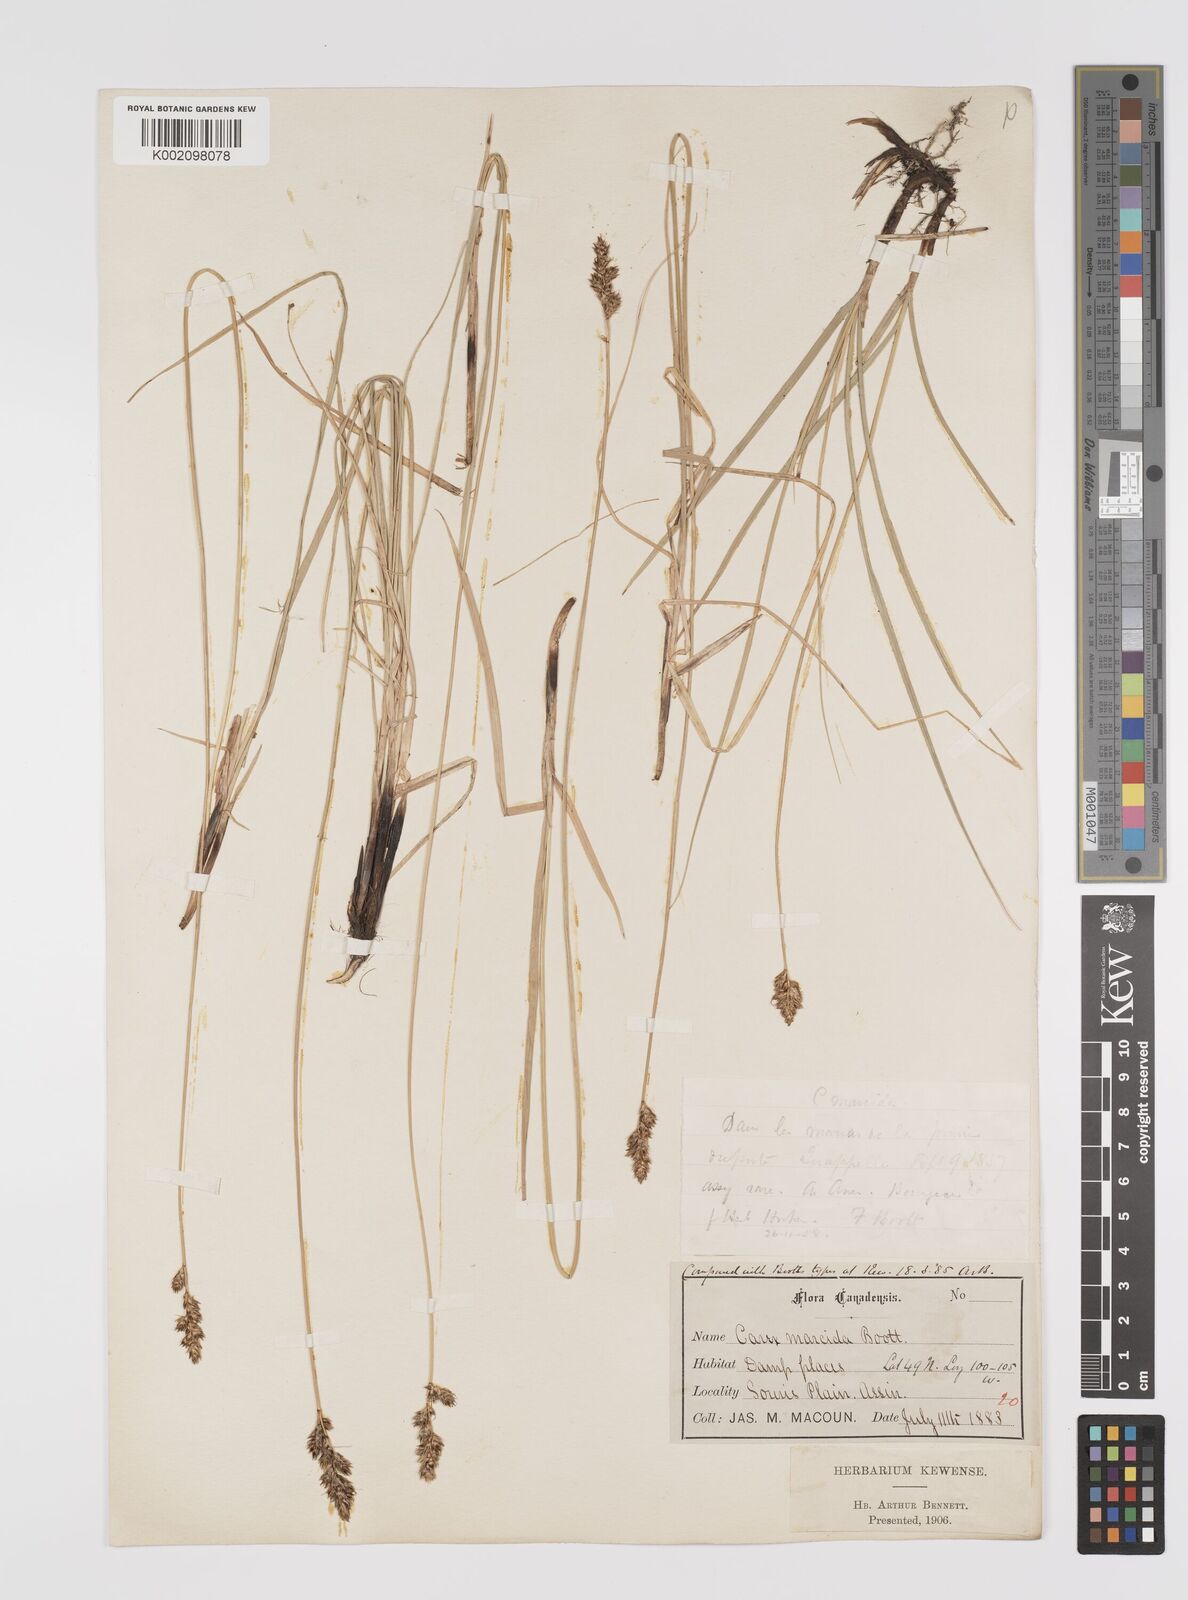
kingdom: Plantae
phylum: Tracheophyta
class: Liliopsida
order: Poales
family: Cyperaceae
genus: Carex
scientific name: Carex praegracilis
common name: Black creeper sedge
